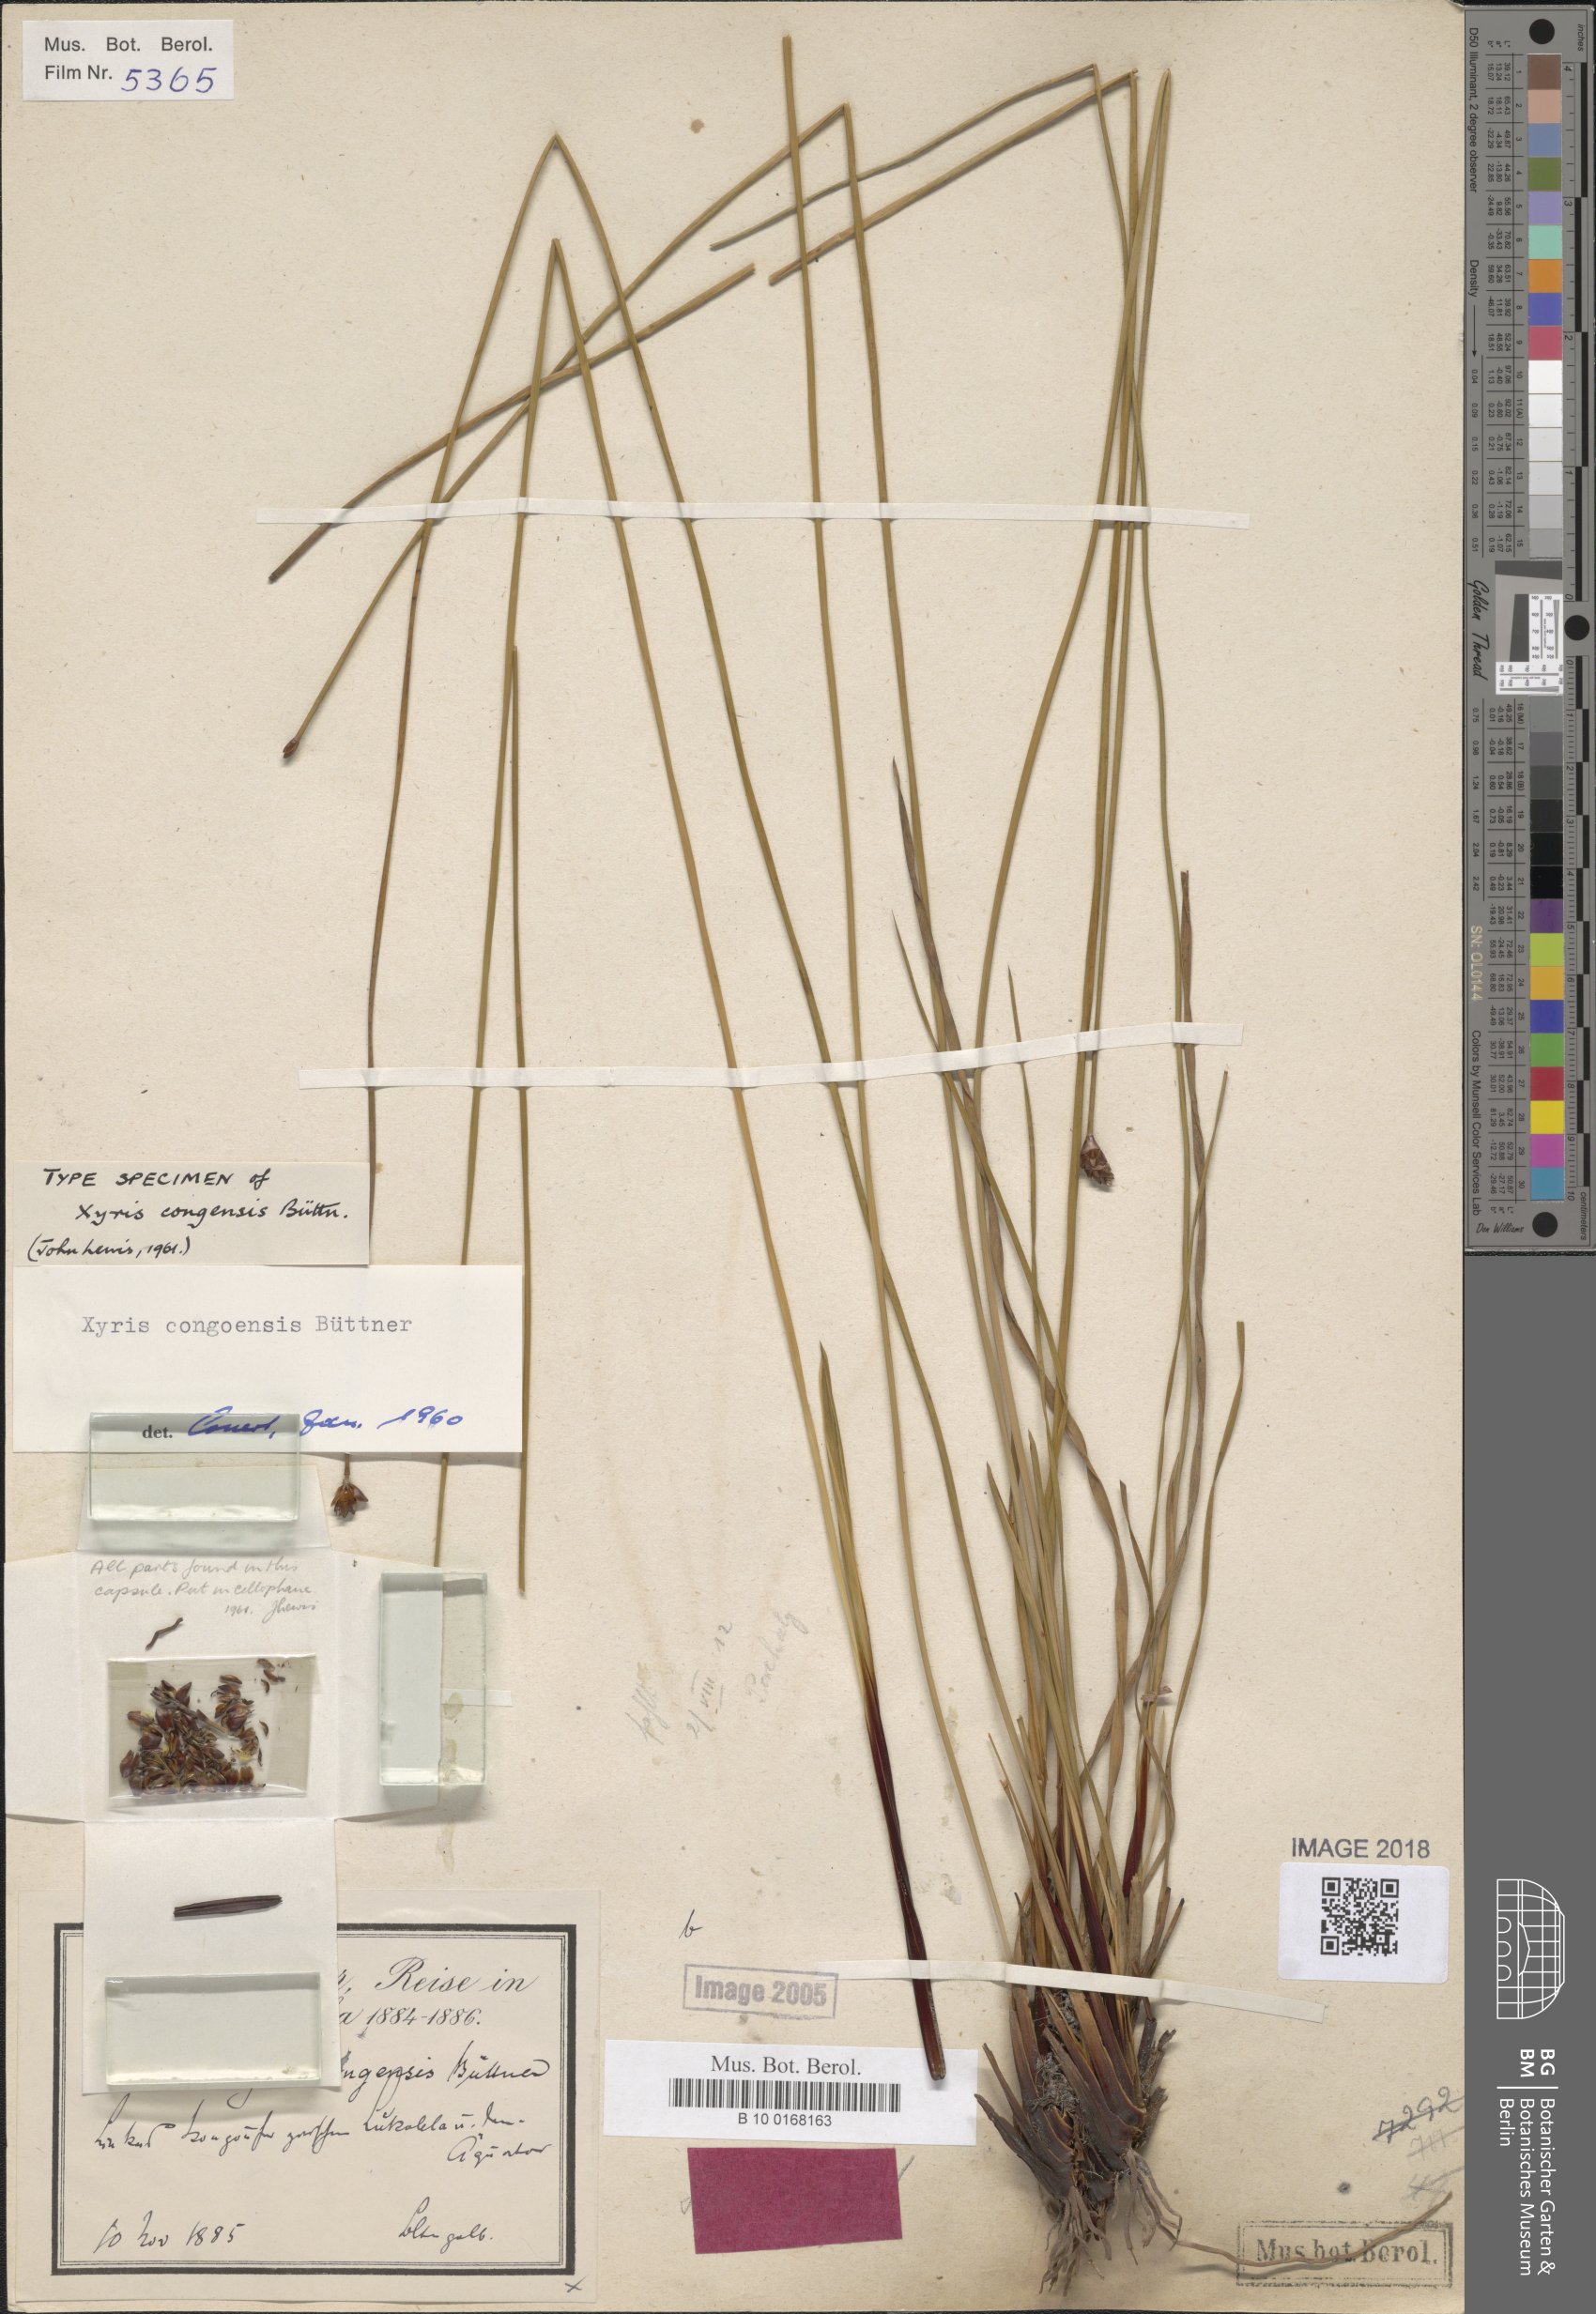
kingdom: Plantae
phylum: Tracheophyta
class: Liliopsida
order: Poales
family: Xyridaceae
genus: Xyris
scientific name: Xyris congensis
